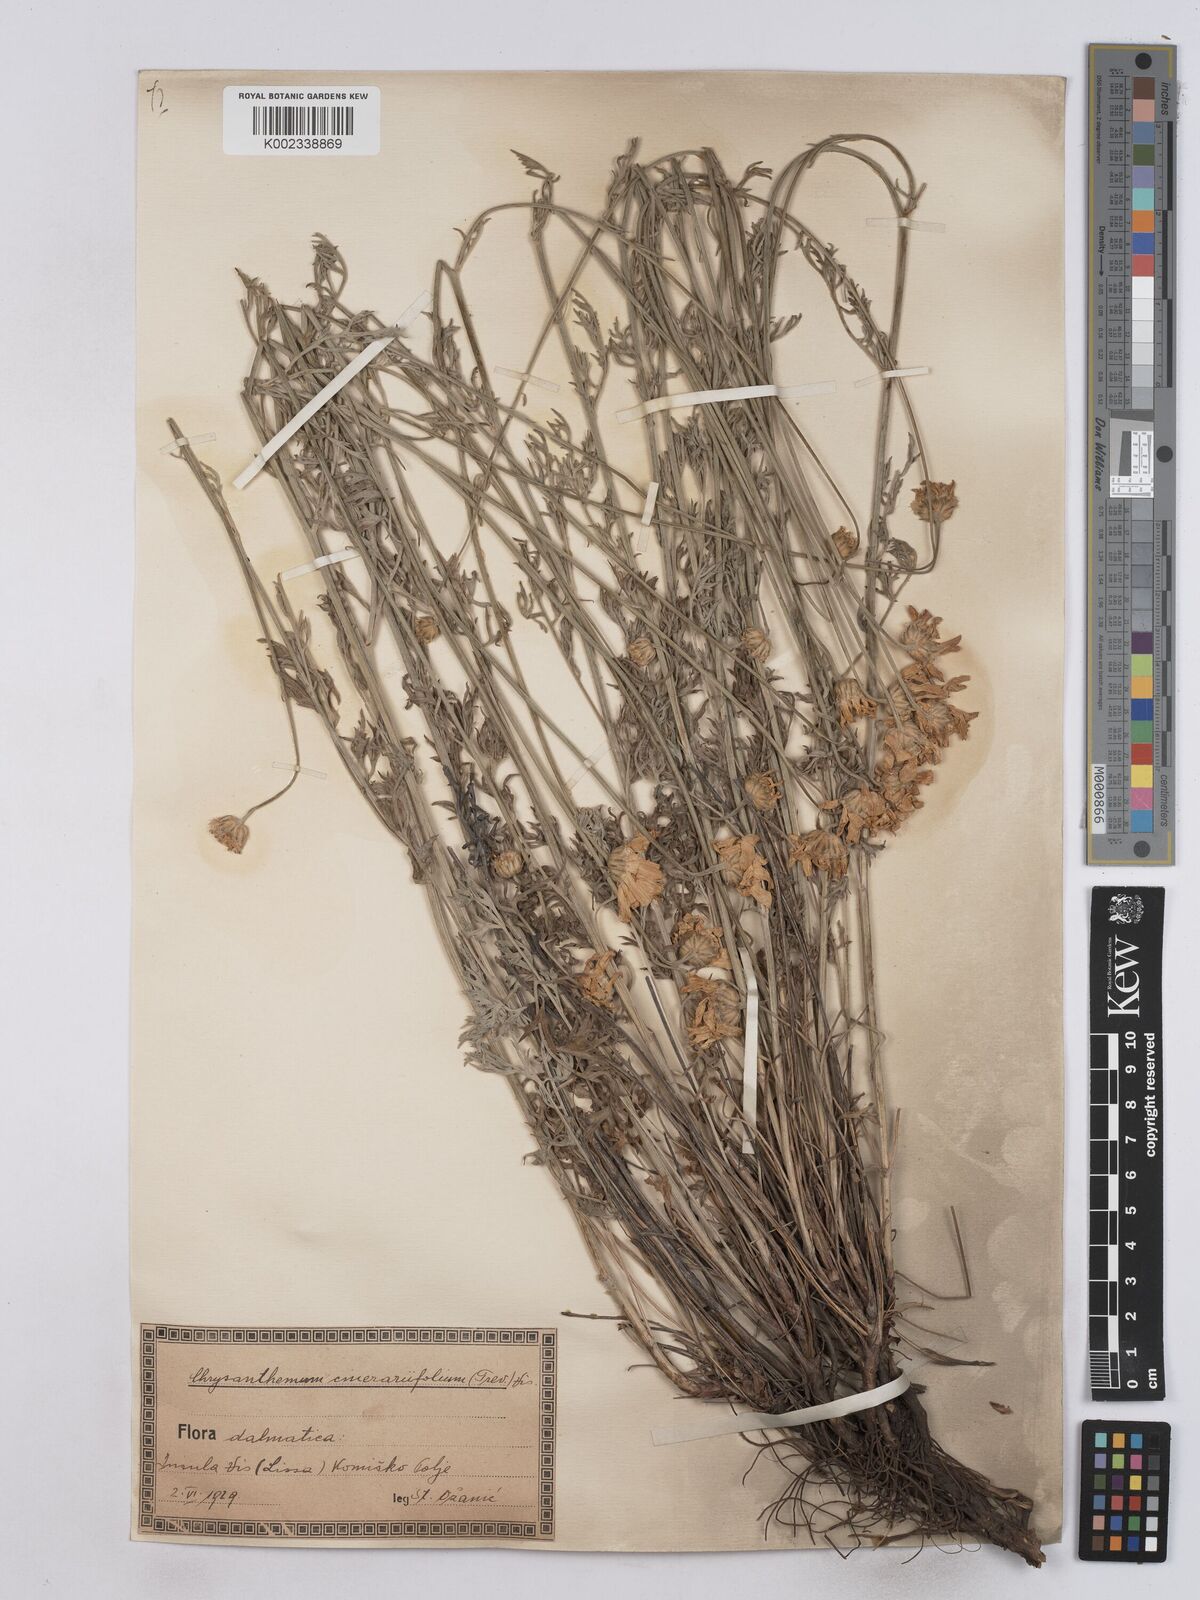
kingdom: Plantae
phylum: Tracheophyta
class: Magnoliopsida
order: Asterales
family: Asteraceae
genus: Tanacetum
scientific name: Tanacetum cinerariifolium
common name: Dalmatian pyrethrum
